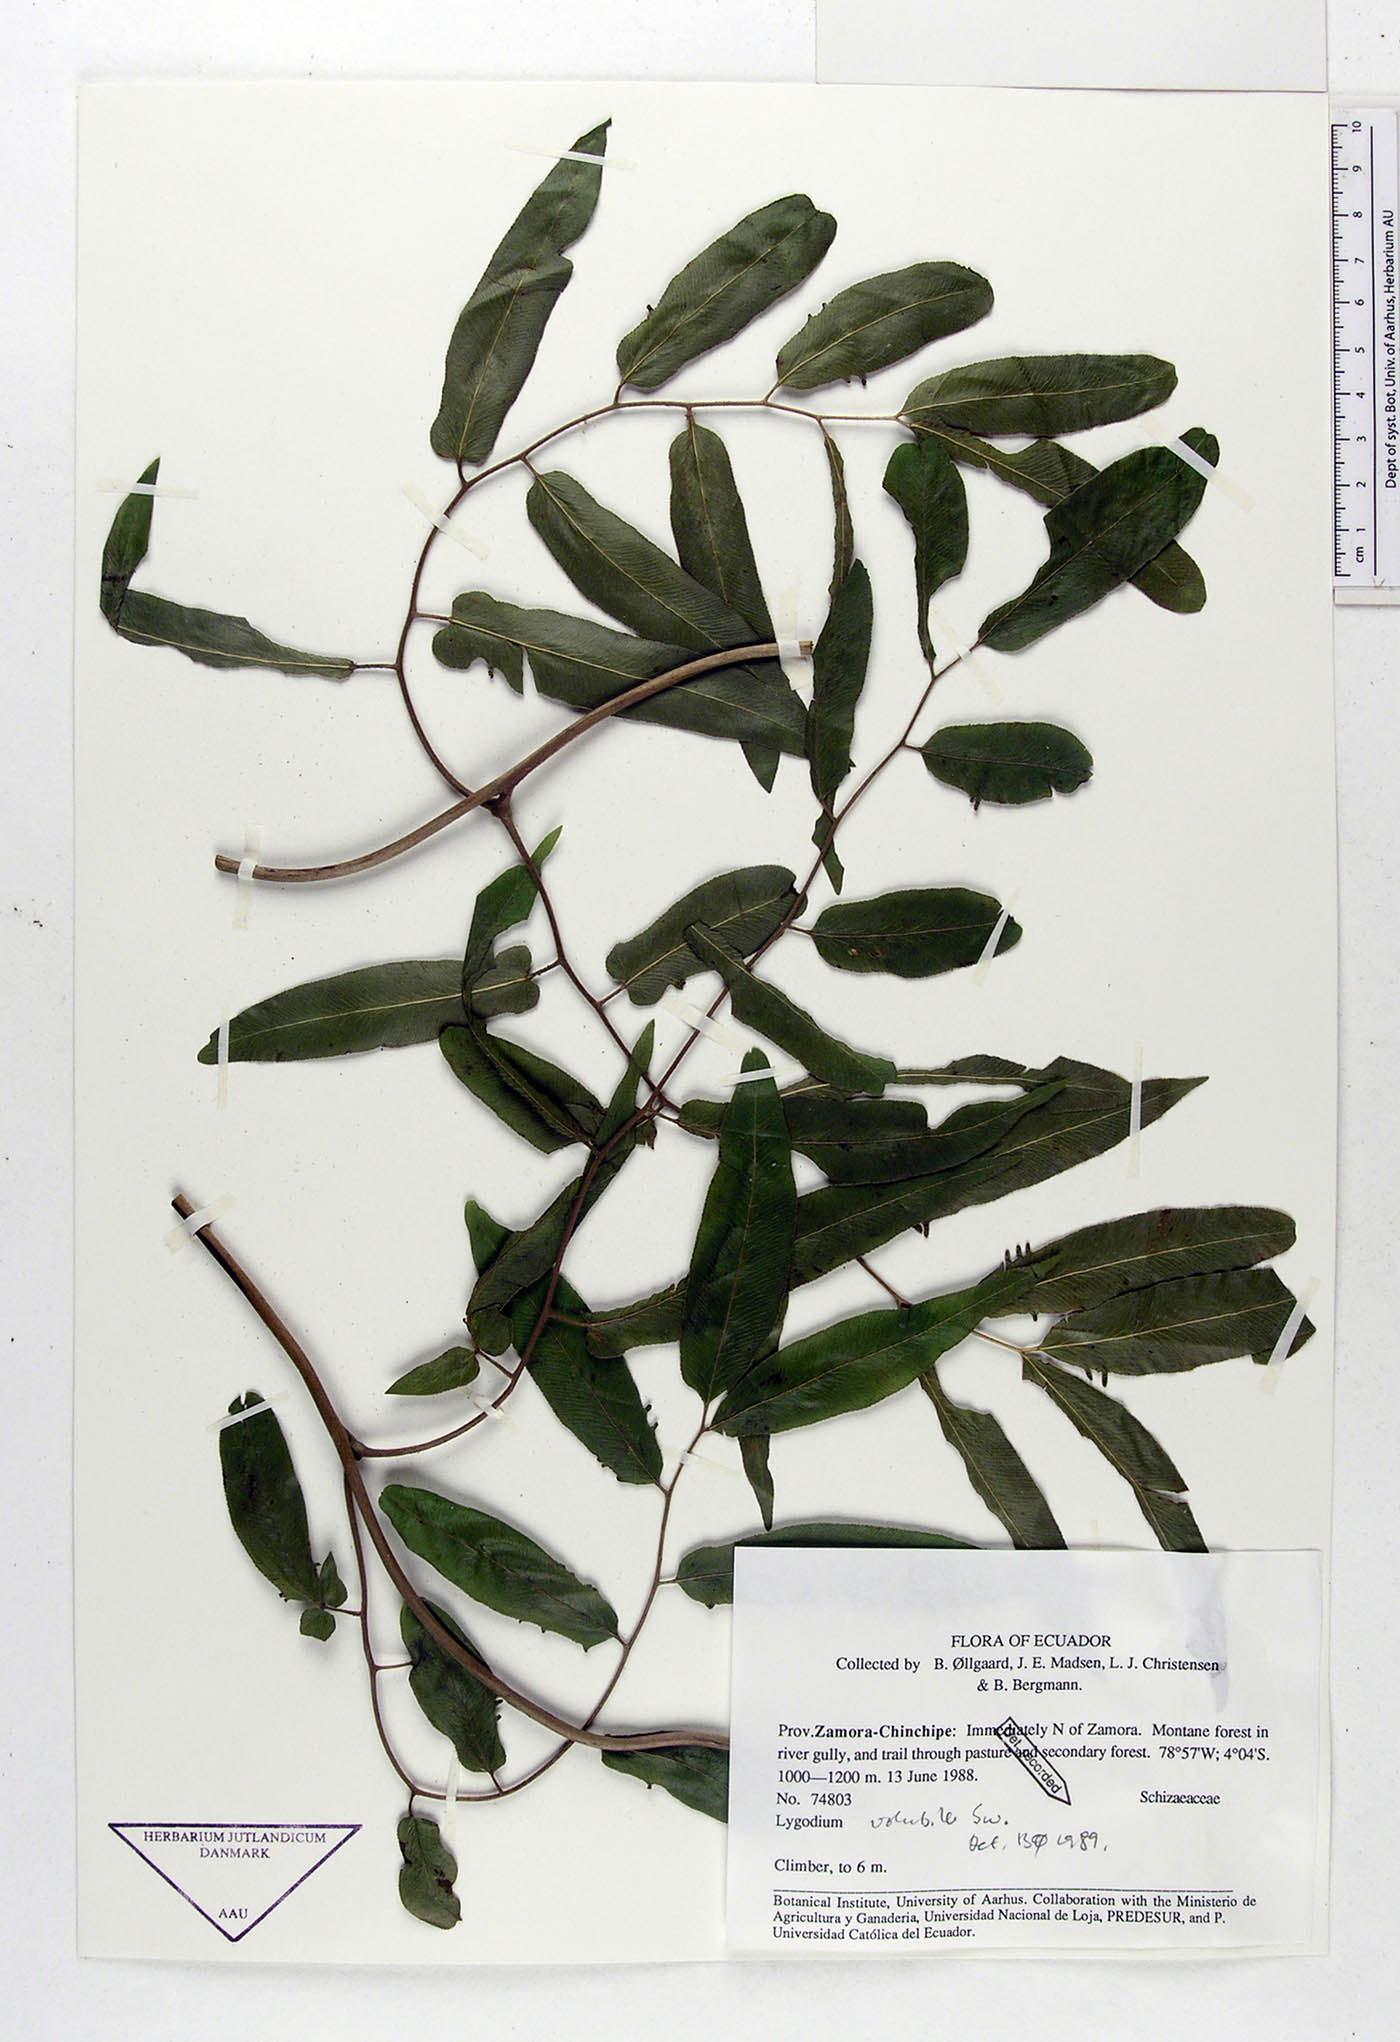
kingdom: Plantae
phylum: Tracheophyta
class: Polypodiopsida
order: Schizaeales
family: Lygodiaceae
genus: Lygodium
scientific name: Lygodium volubile
